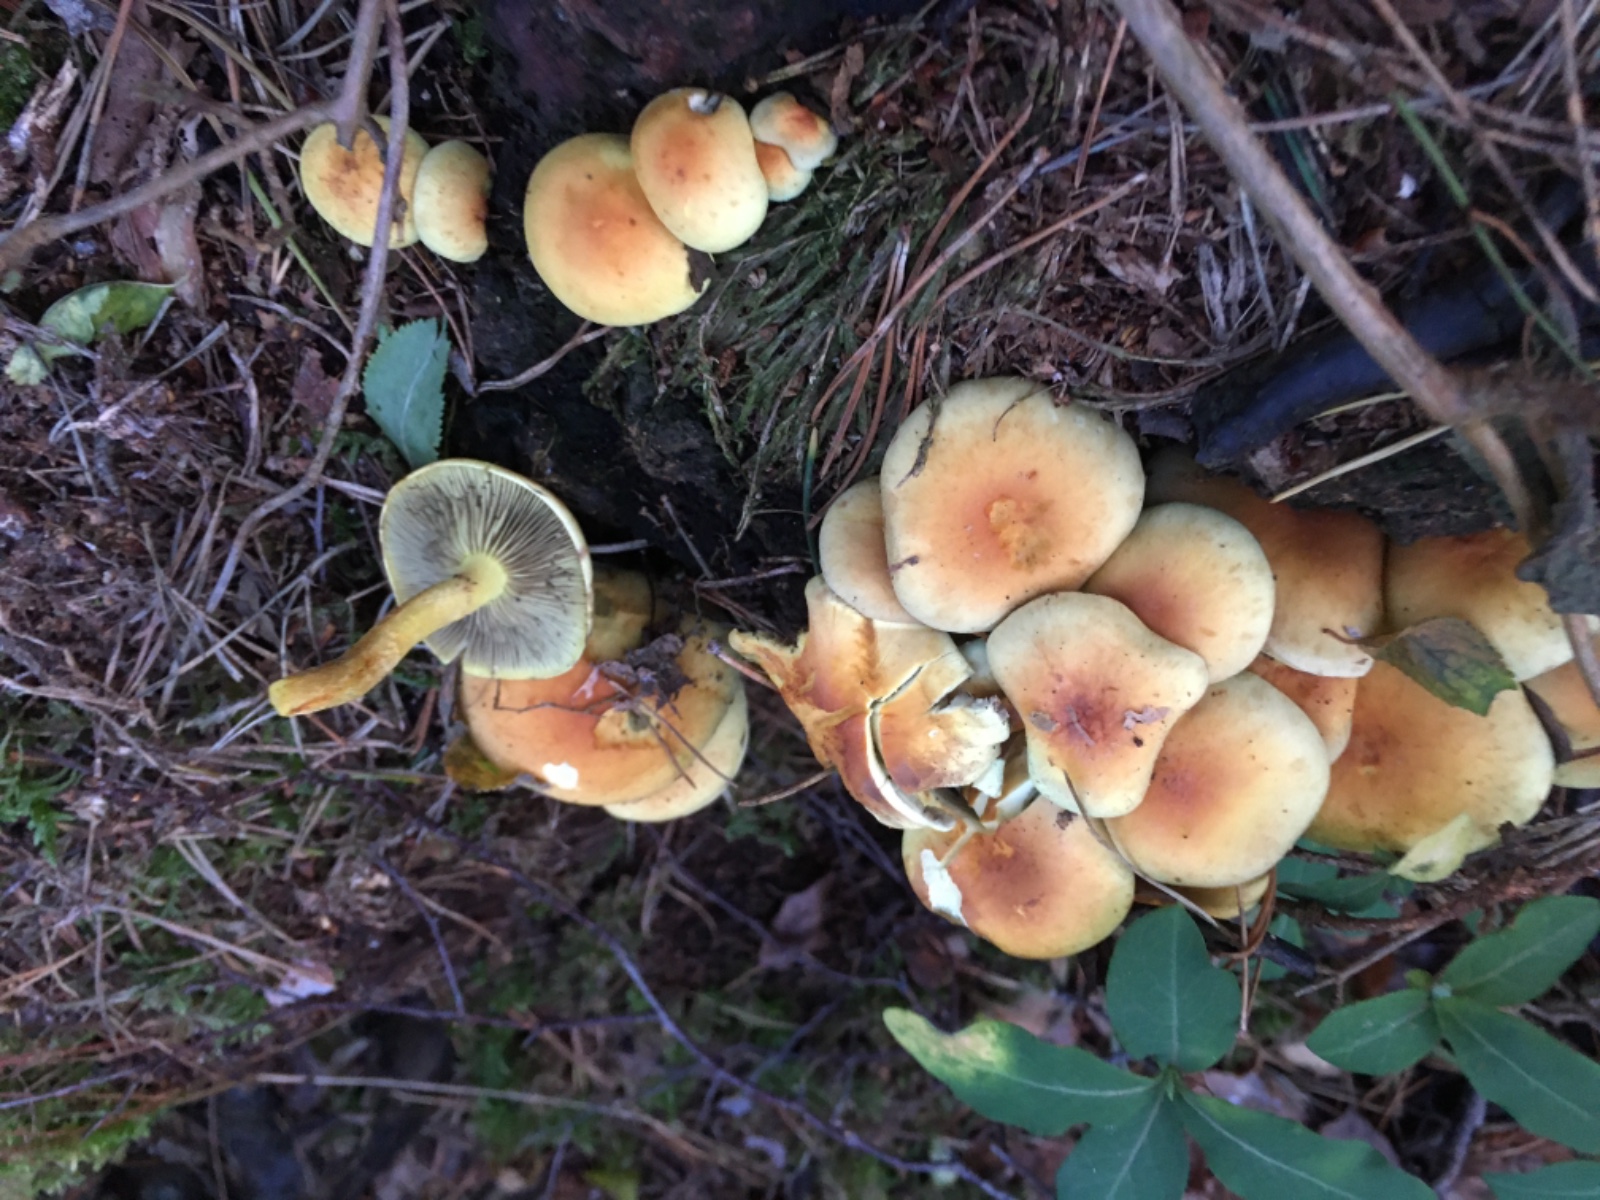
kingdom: Fungi
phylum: Basidiomycota
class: Agaricomycetes
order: Agaricales
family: Strophariaceae
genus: Hypholoma
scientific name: Hypholoma fasciculare
